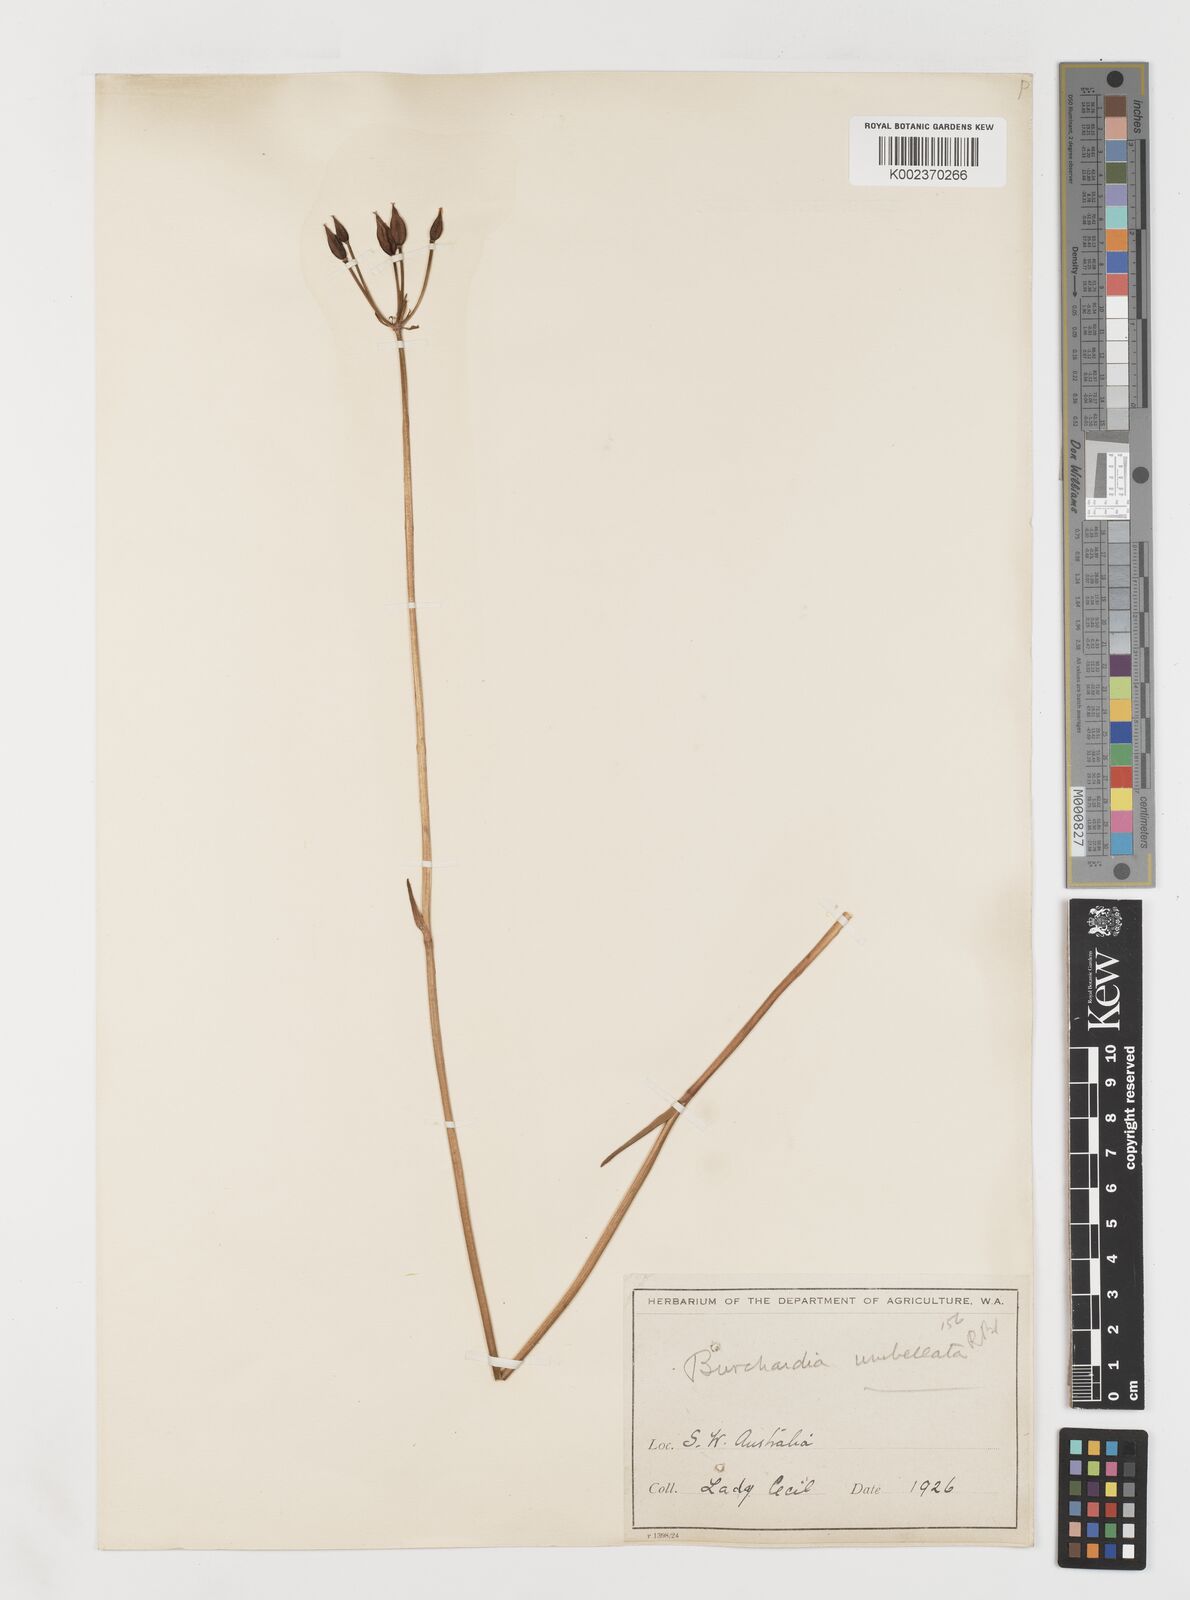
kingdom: Plantae
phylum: Tracheophyta
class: Liliopsida
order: Liliales
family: Colchicaceae
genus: Burchardia
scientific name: Burchardia umbellata
